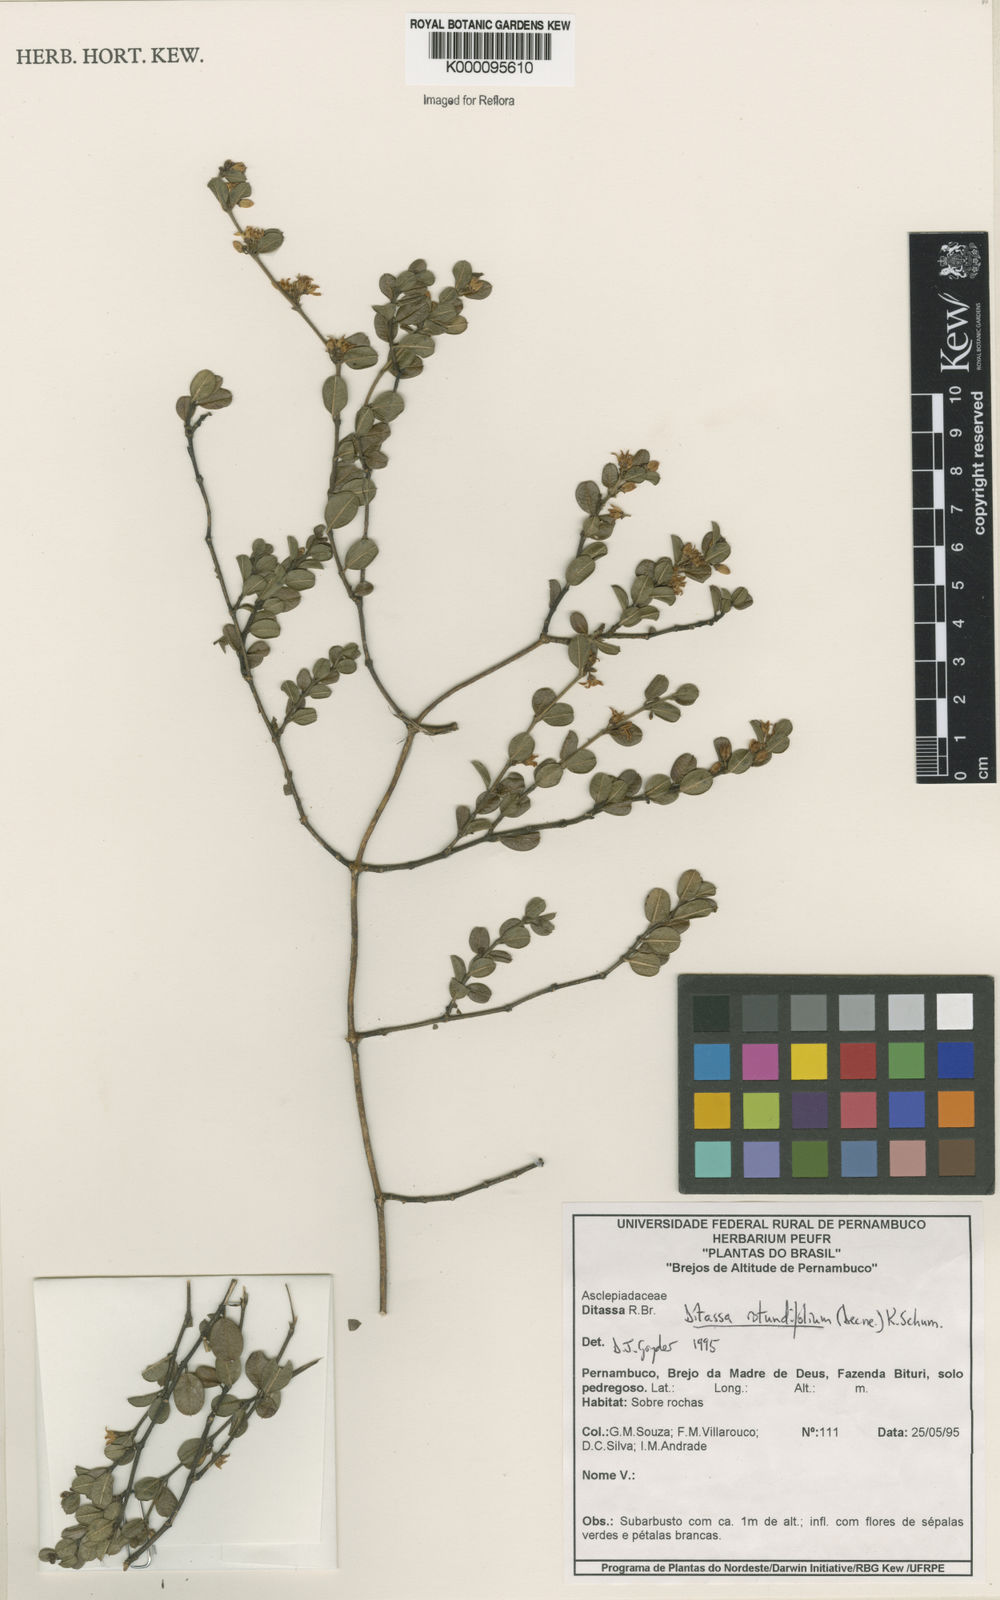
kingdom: Plantae
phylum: Tracheophyta
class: Magnoliopsida
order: Gentianales
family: Apocynaceae
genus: Ditassa
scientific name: Ditassa
